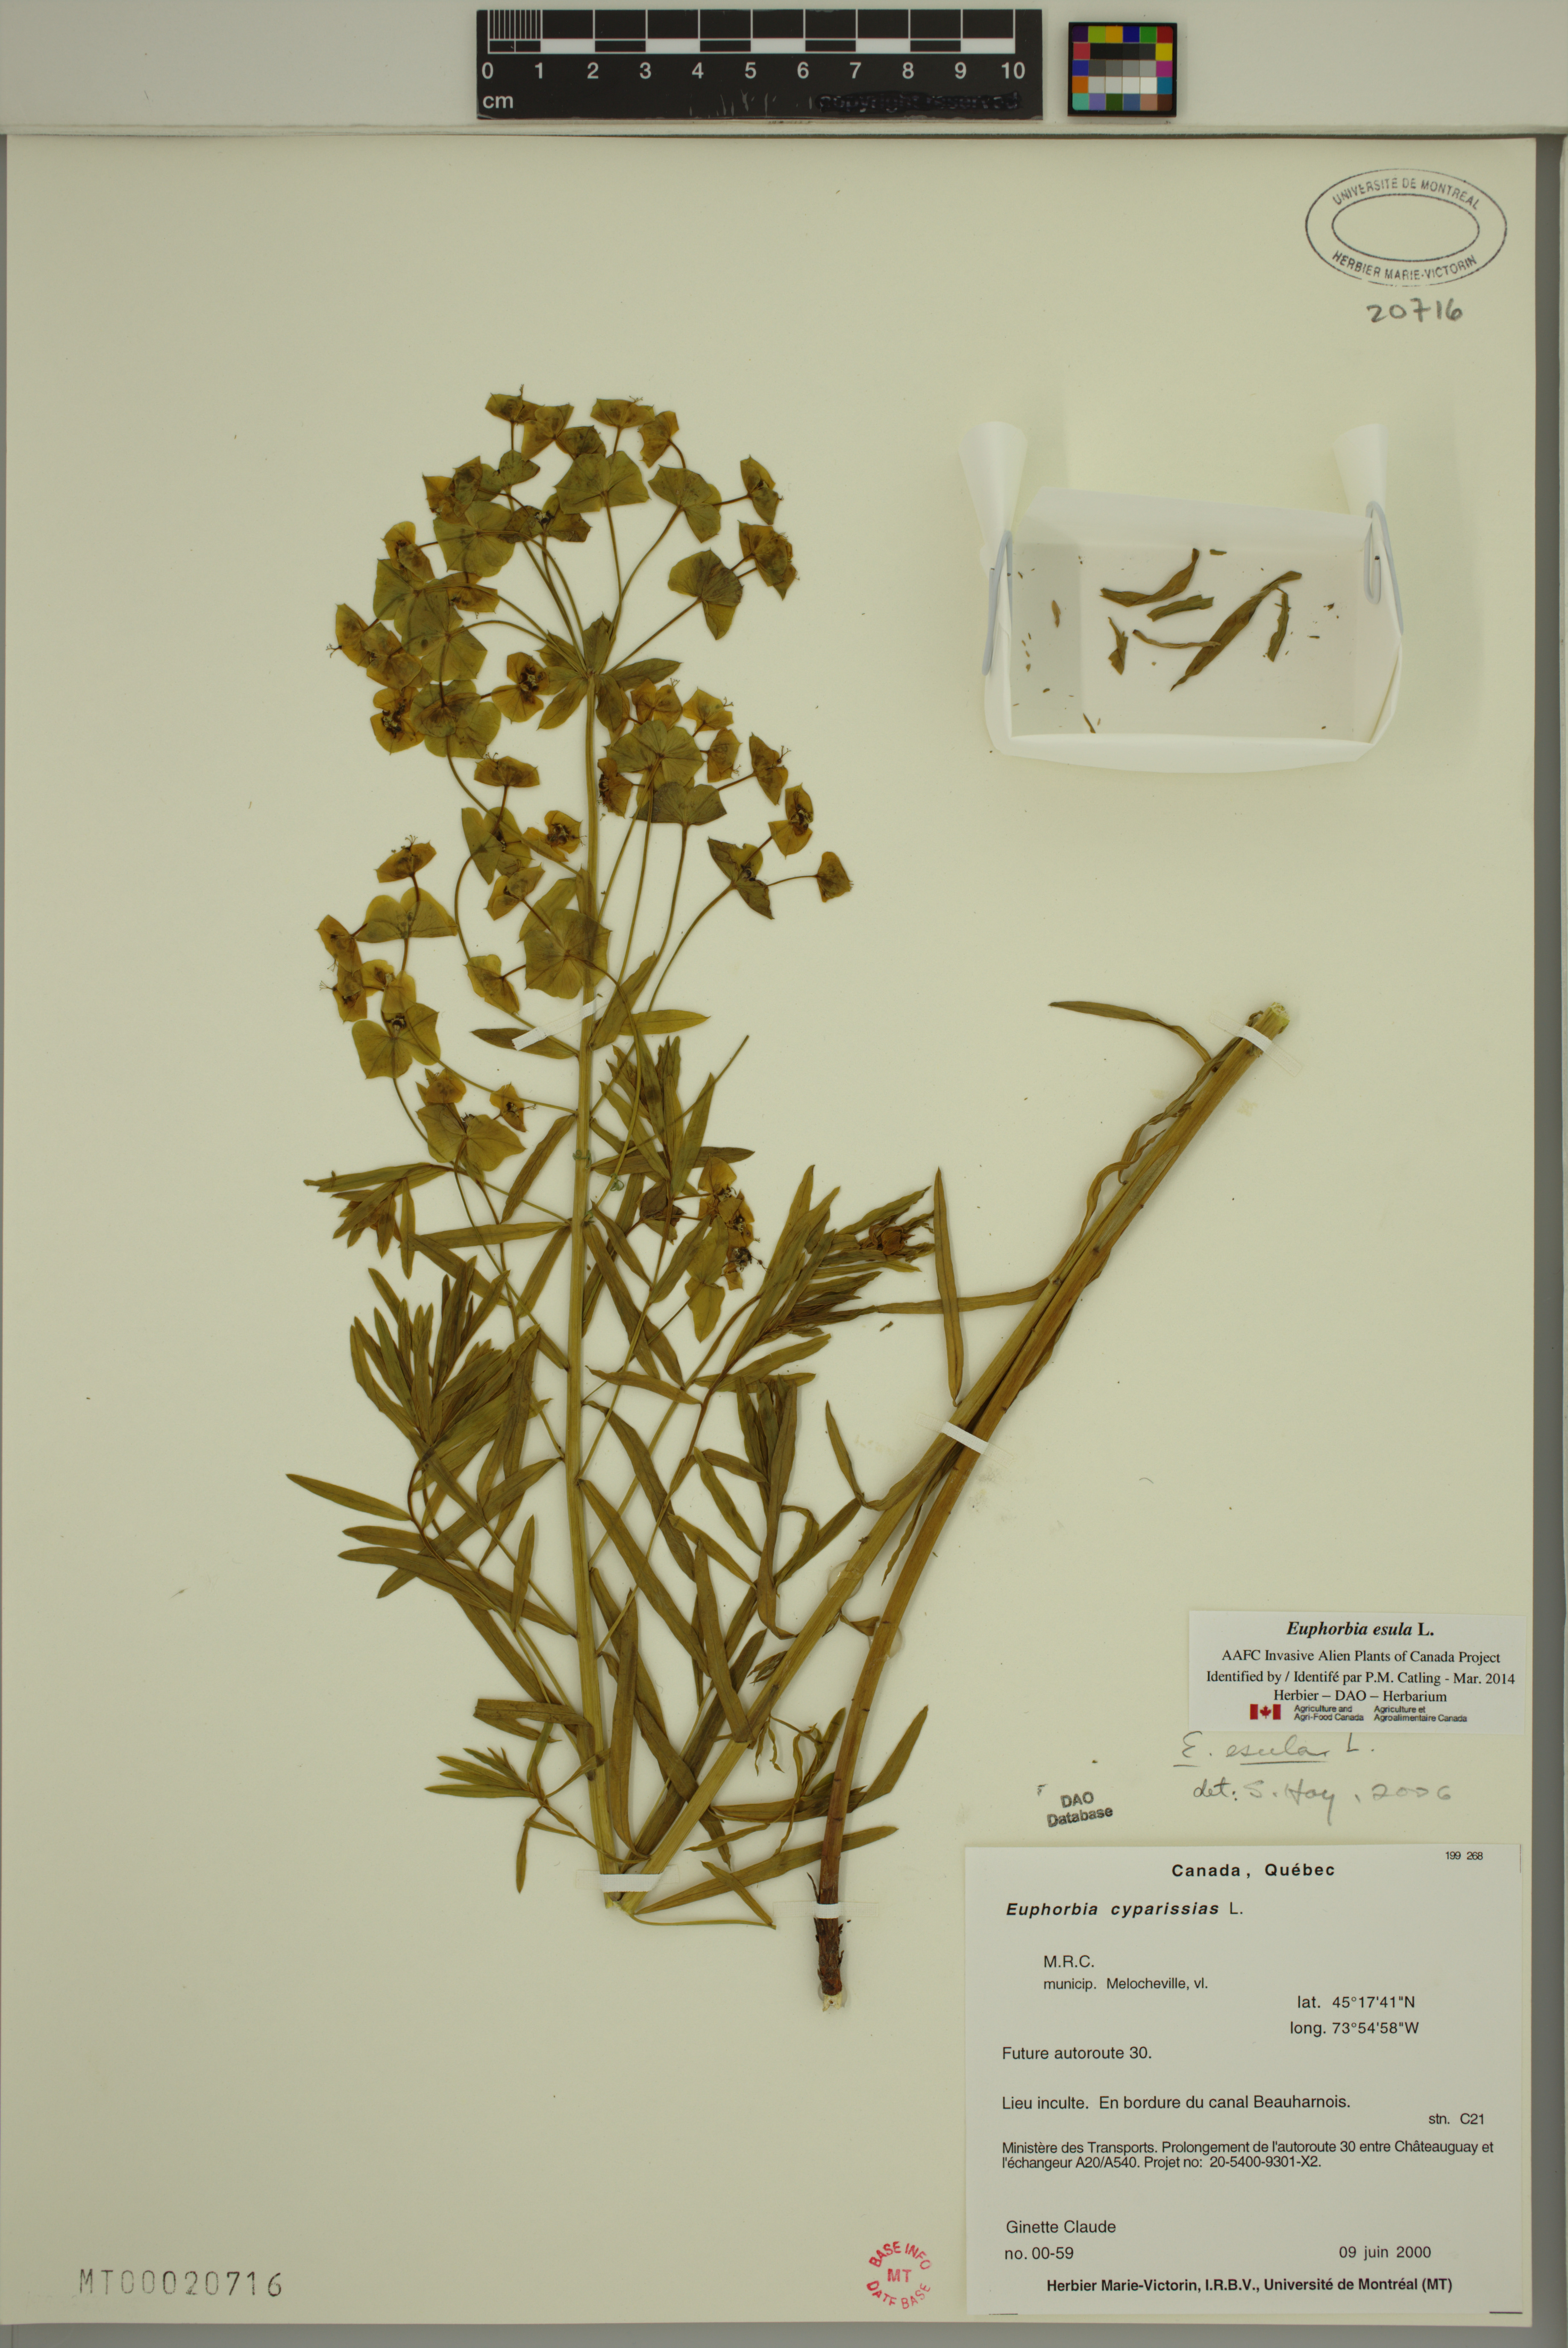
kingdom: Plantae
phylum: Tracheophyta
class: Magnoliopsida
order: Malpighiales
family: Euphorbiaceae
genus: Euphorbia
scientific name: Euphorbia esula
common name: Leafy spurge
